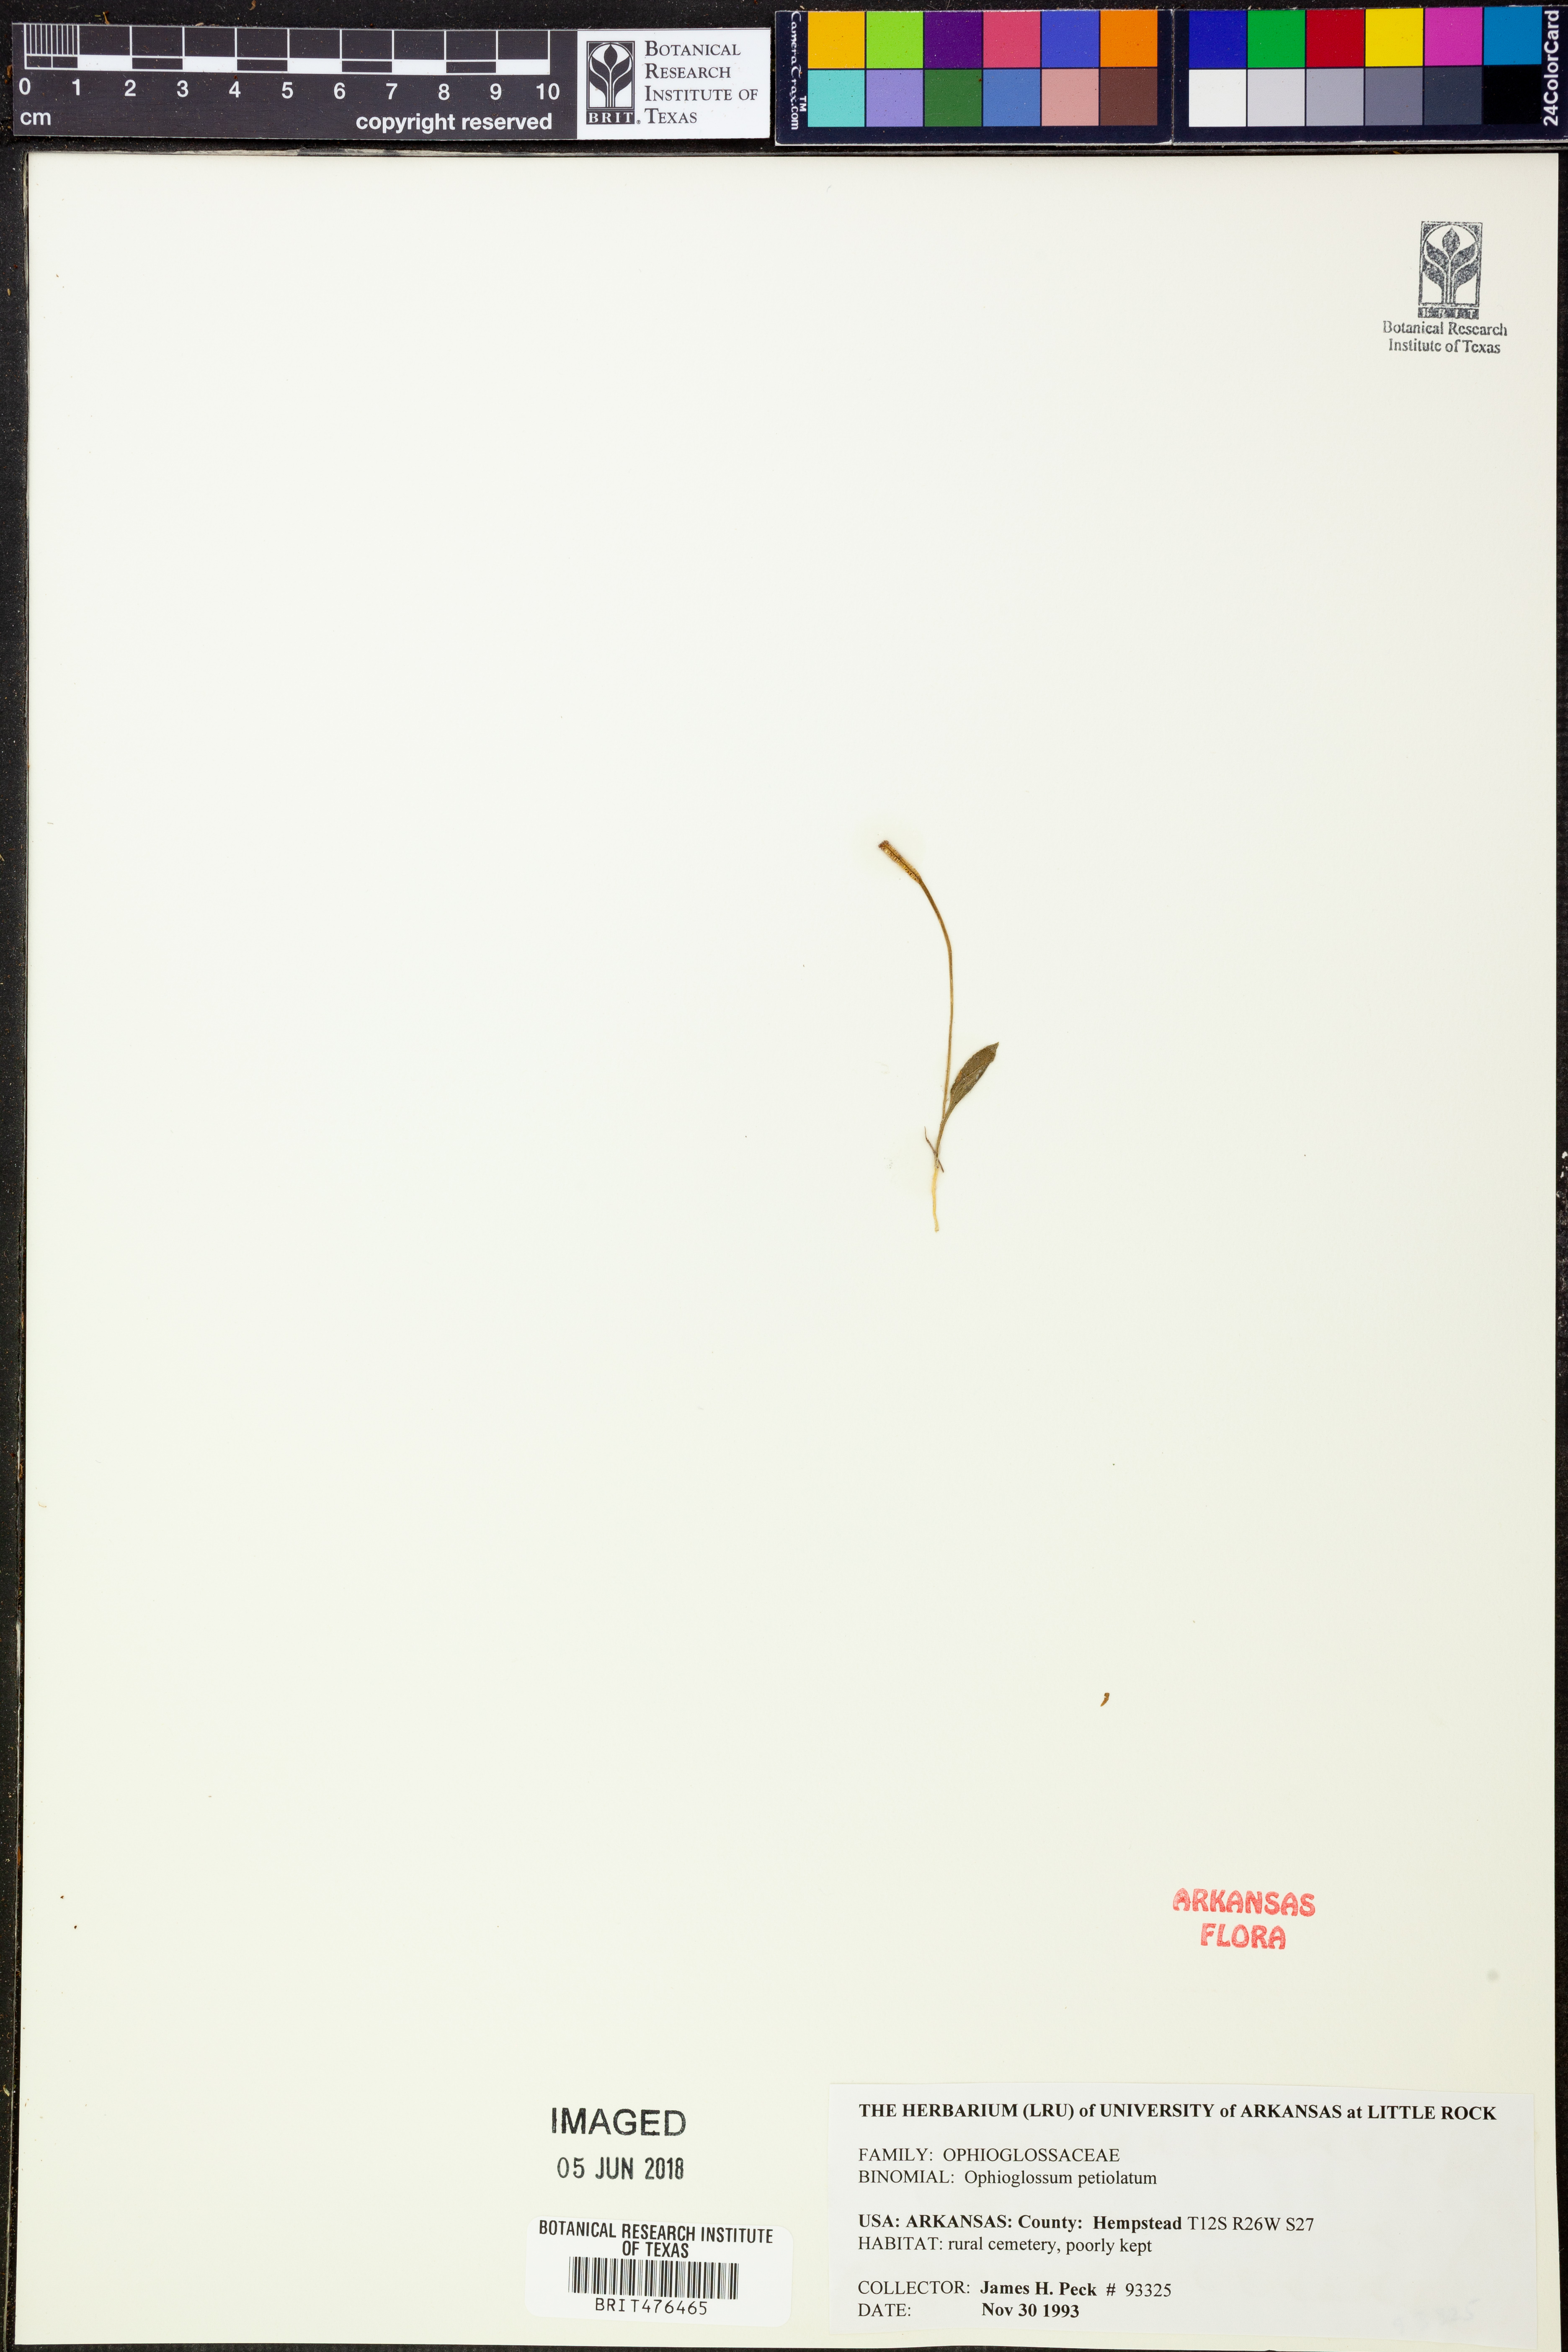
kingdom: Plantae
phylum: Tracheophyta
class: Polypodiopsida
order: Ophioglossales
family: Ophioglossaceae
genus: Ophioglossum
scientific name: Ophioglossum petiolatum
